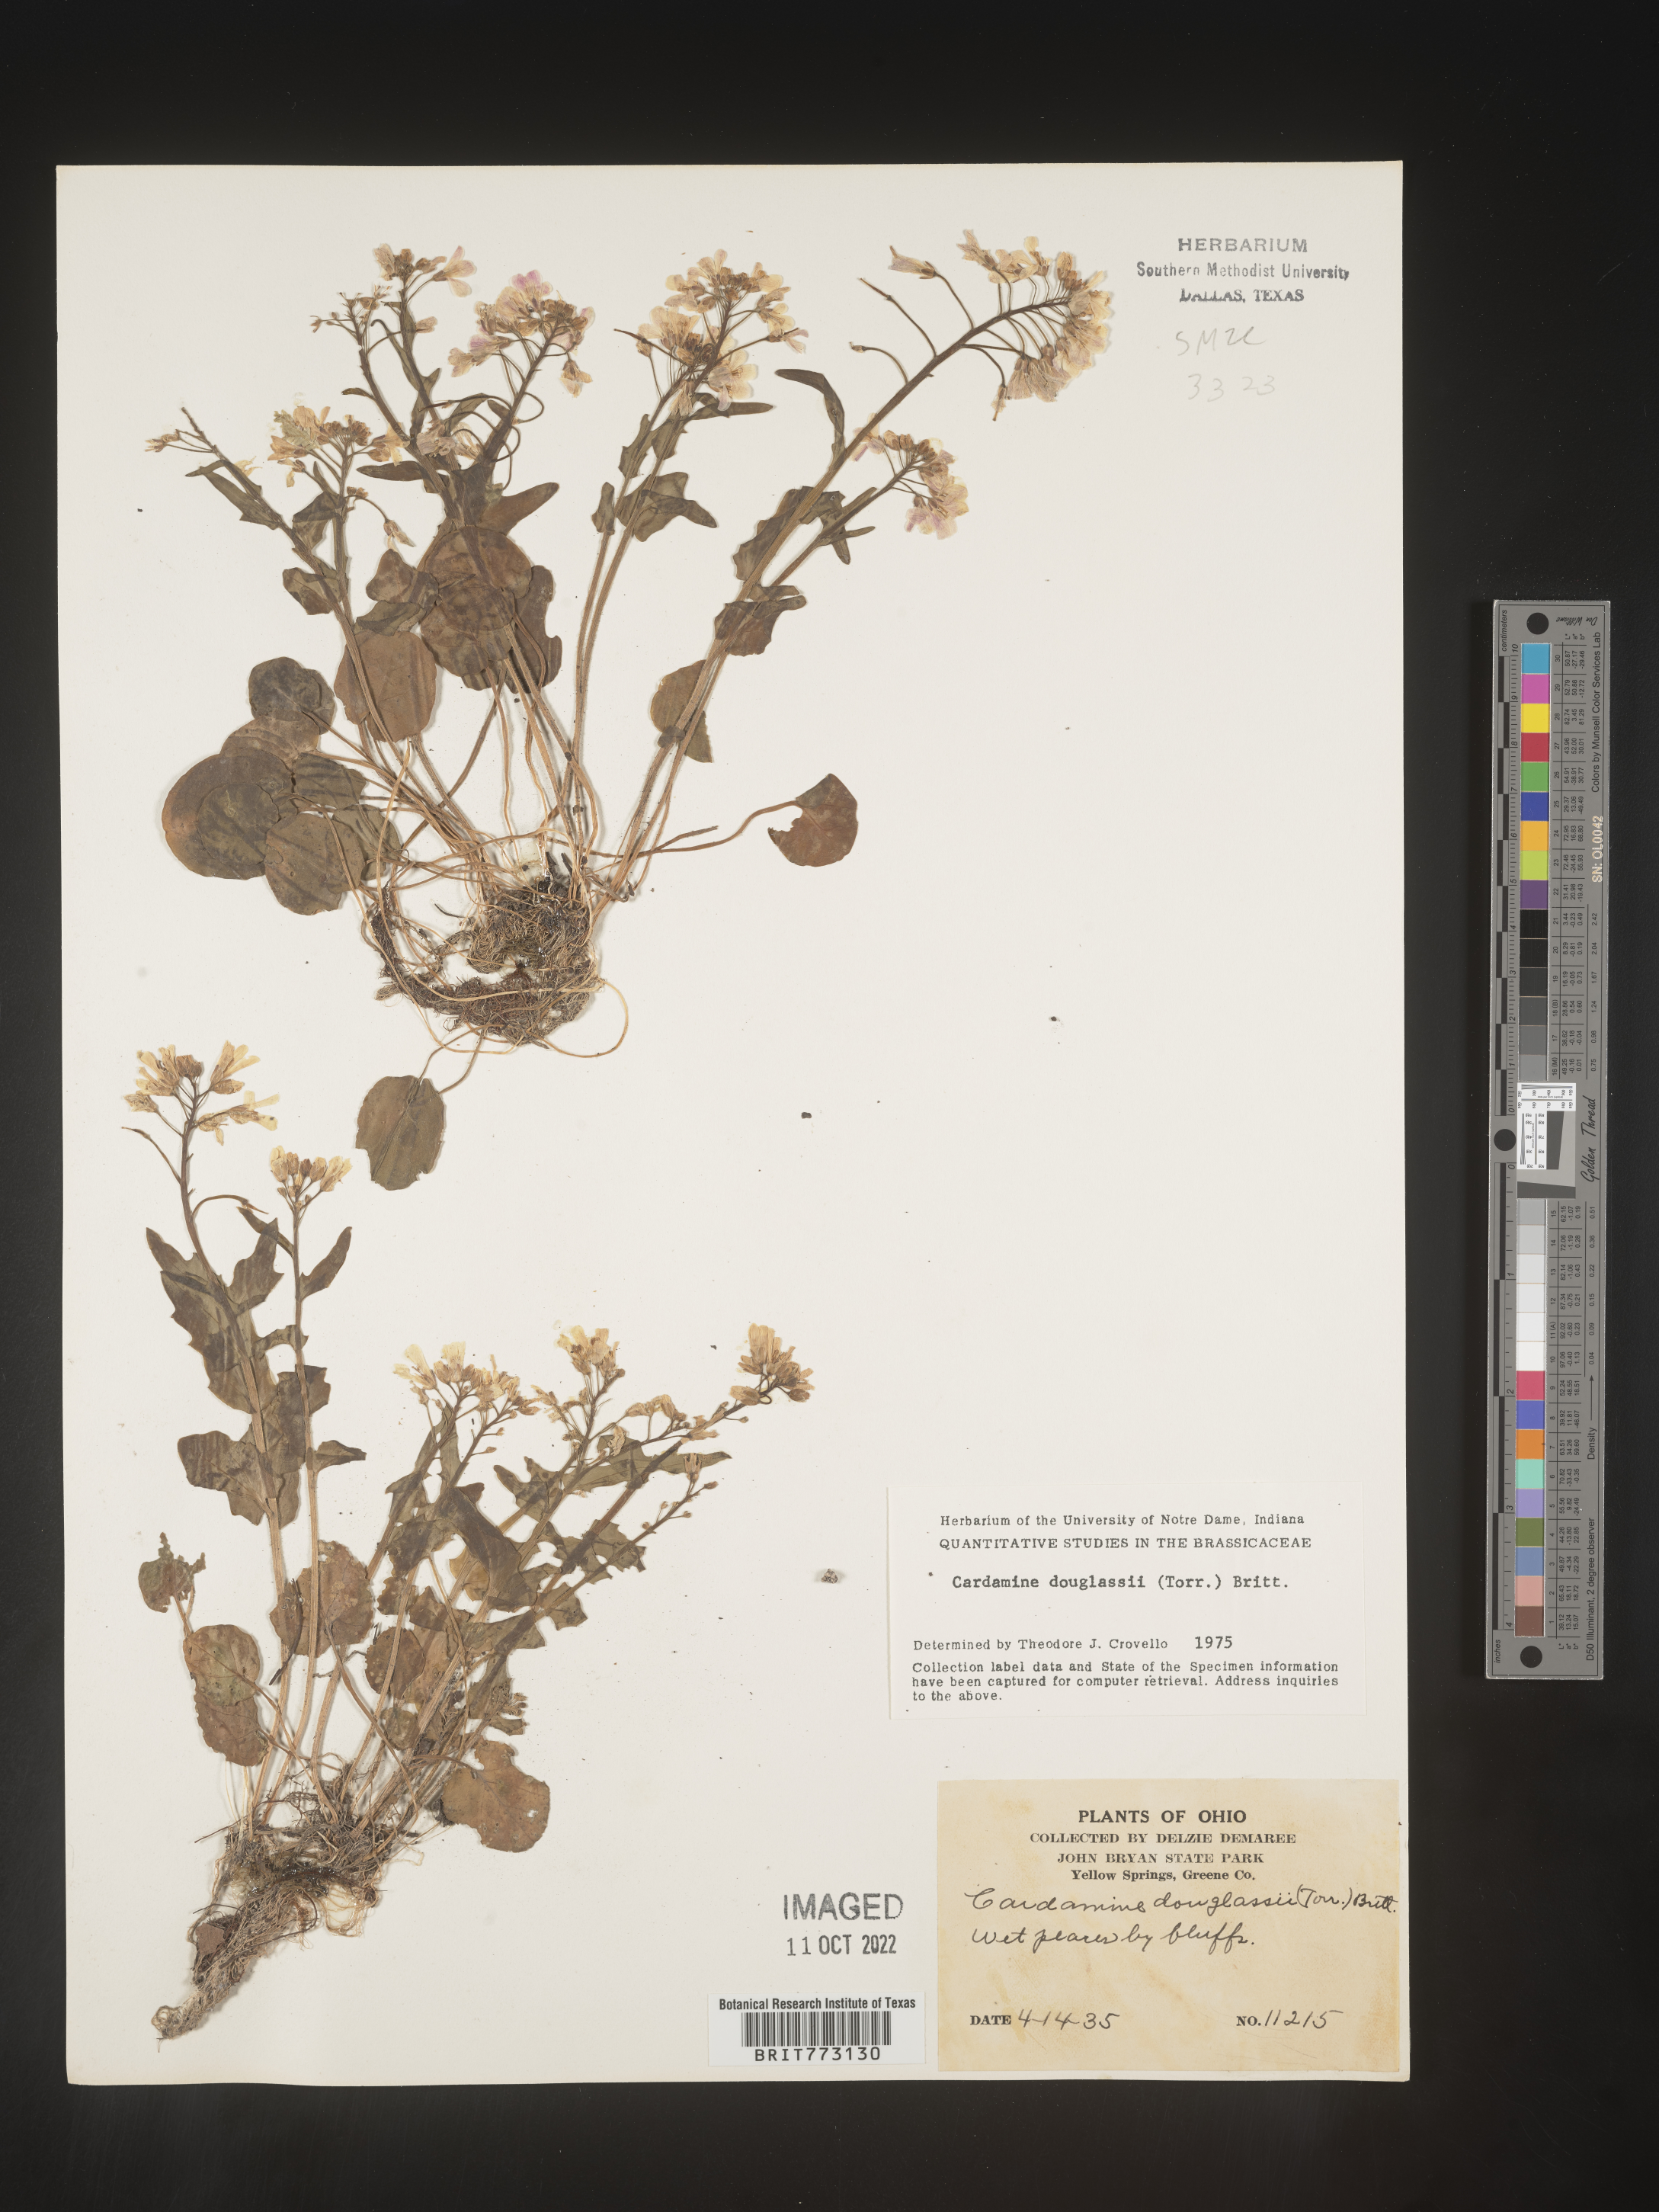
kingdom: Plantae
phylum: Tracheophyta
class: Magnoliopsida
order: Brassicales
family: Brassicaceae
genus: Cardamine
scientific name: Cardamine
